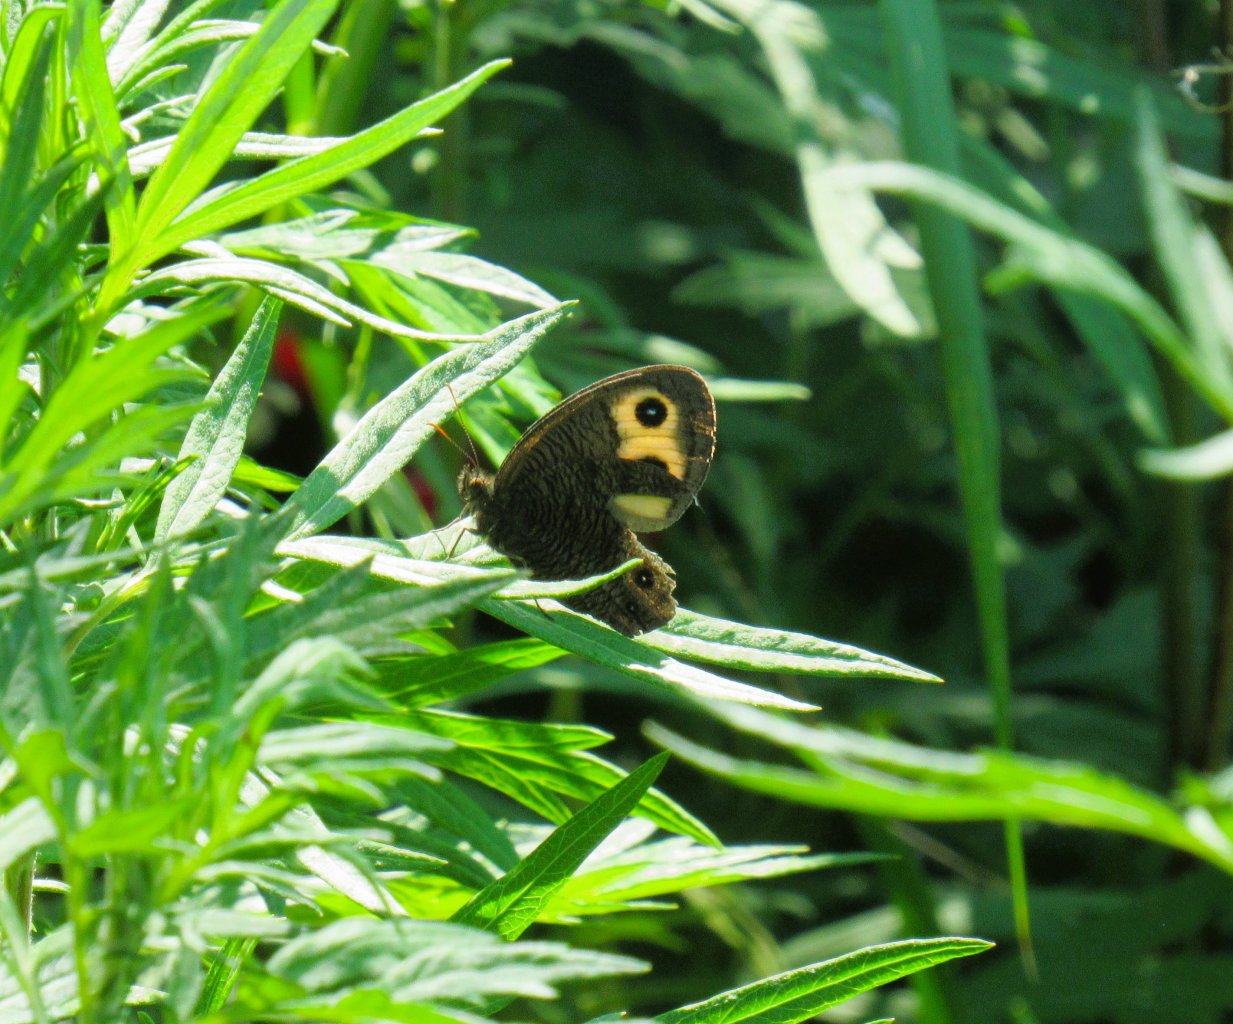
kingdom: Animalia
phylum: Arthropoda
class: Insecta
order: Lepidoptera
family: Nymphalidae
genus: Cercyonis
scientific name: Cercyonis pegala
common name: Common Wood-Nymph
